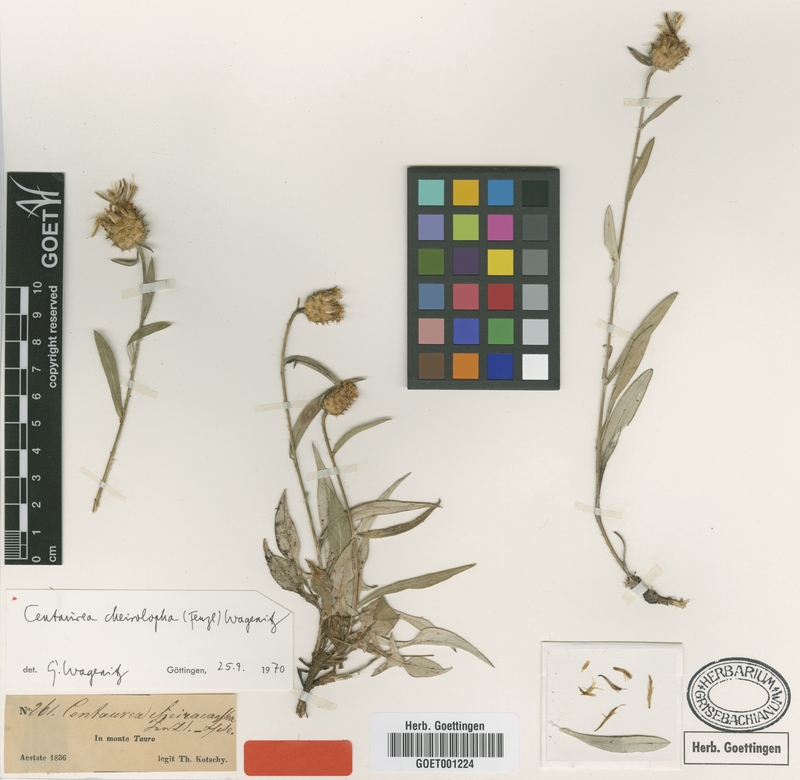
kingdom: Plantae
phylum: Tracheophyta
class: Magnoliopsida
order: Asterales
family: Asteraceae
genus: Centaurea
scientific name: Centaurea cheirolopha
